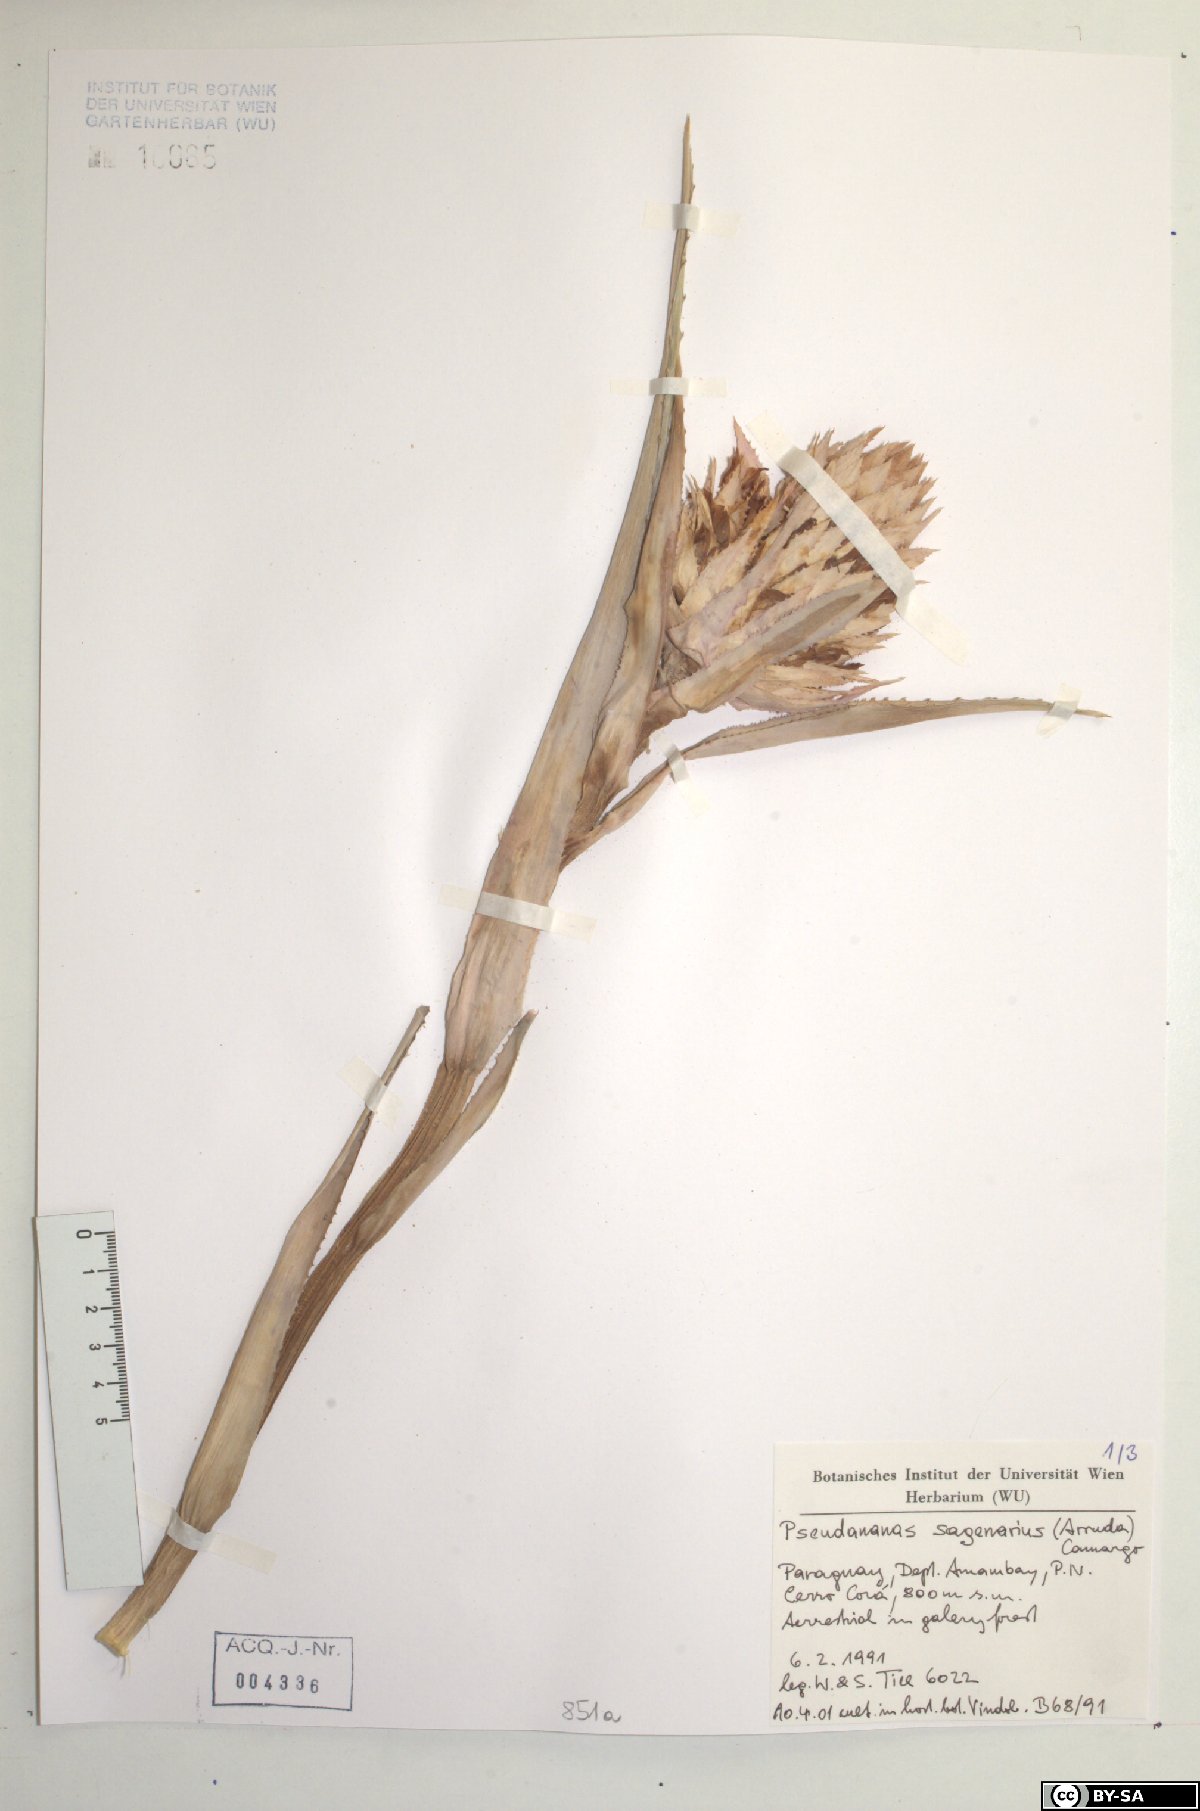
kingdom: Plantae
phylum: Tracheophyta
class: Liliopsida
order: Poales
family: Bromeliaceae
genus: Ananas
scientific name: Ananas comosus
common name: Pineapple
